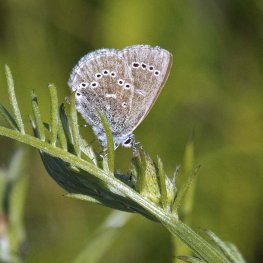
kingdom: Animalia
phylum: Arthropoda
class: Insecta
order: Lepidoptera
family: Lycaenidae
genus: Glaucopsyche
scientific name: Glaucopsyche lygdamus
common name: Silvery Blue
